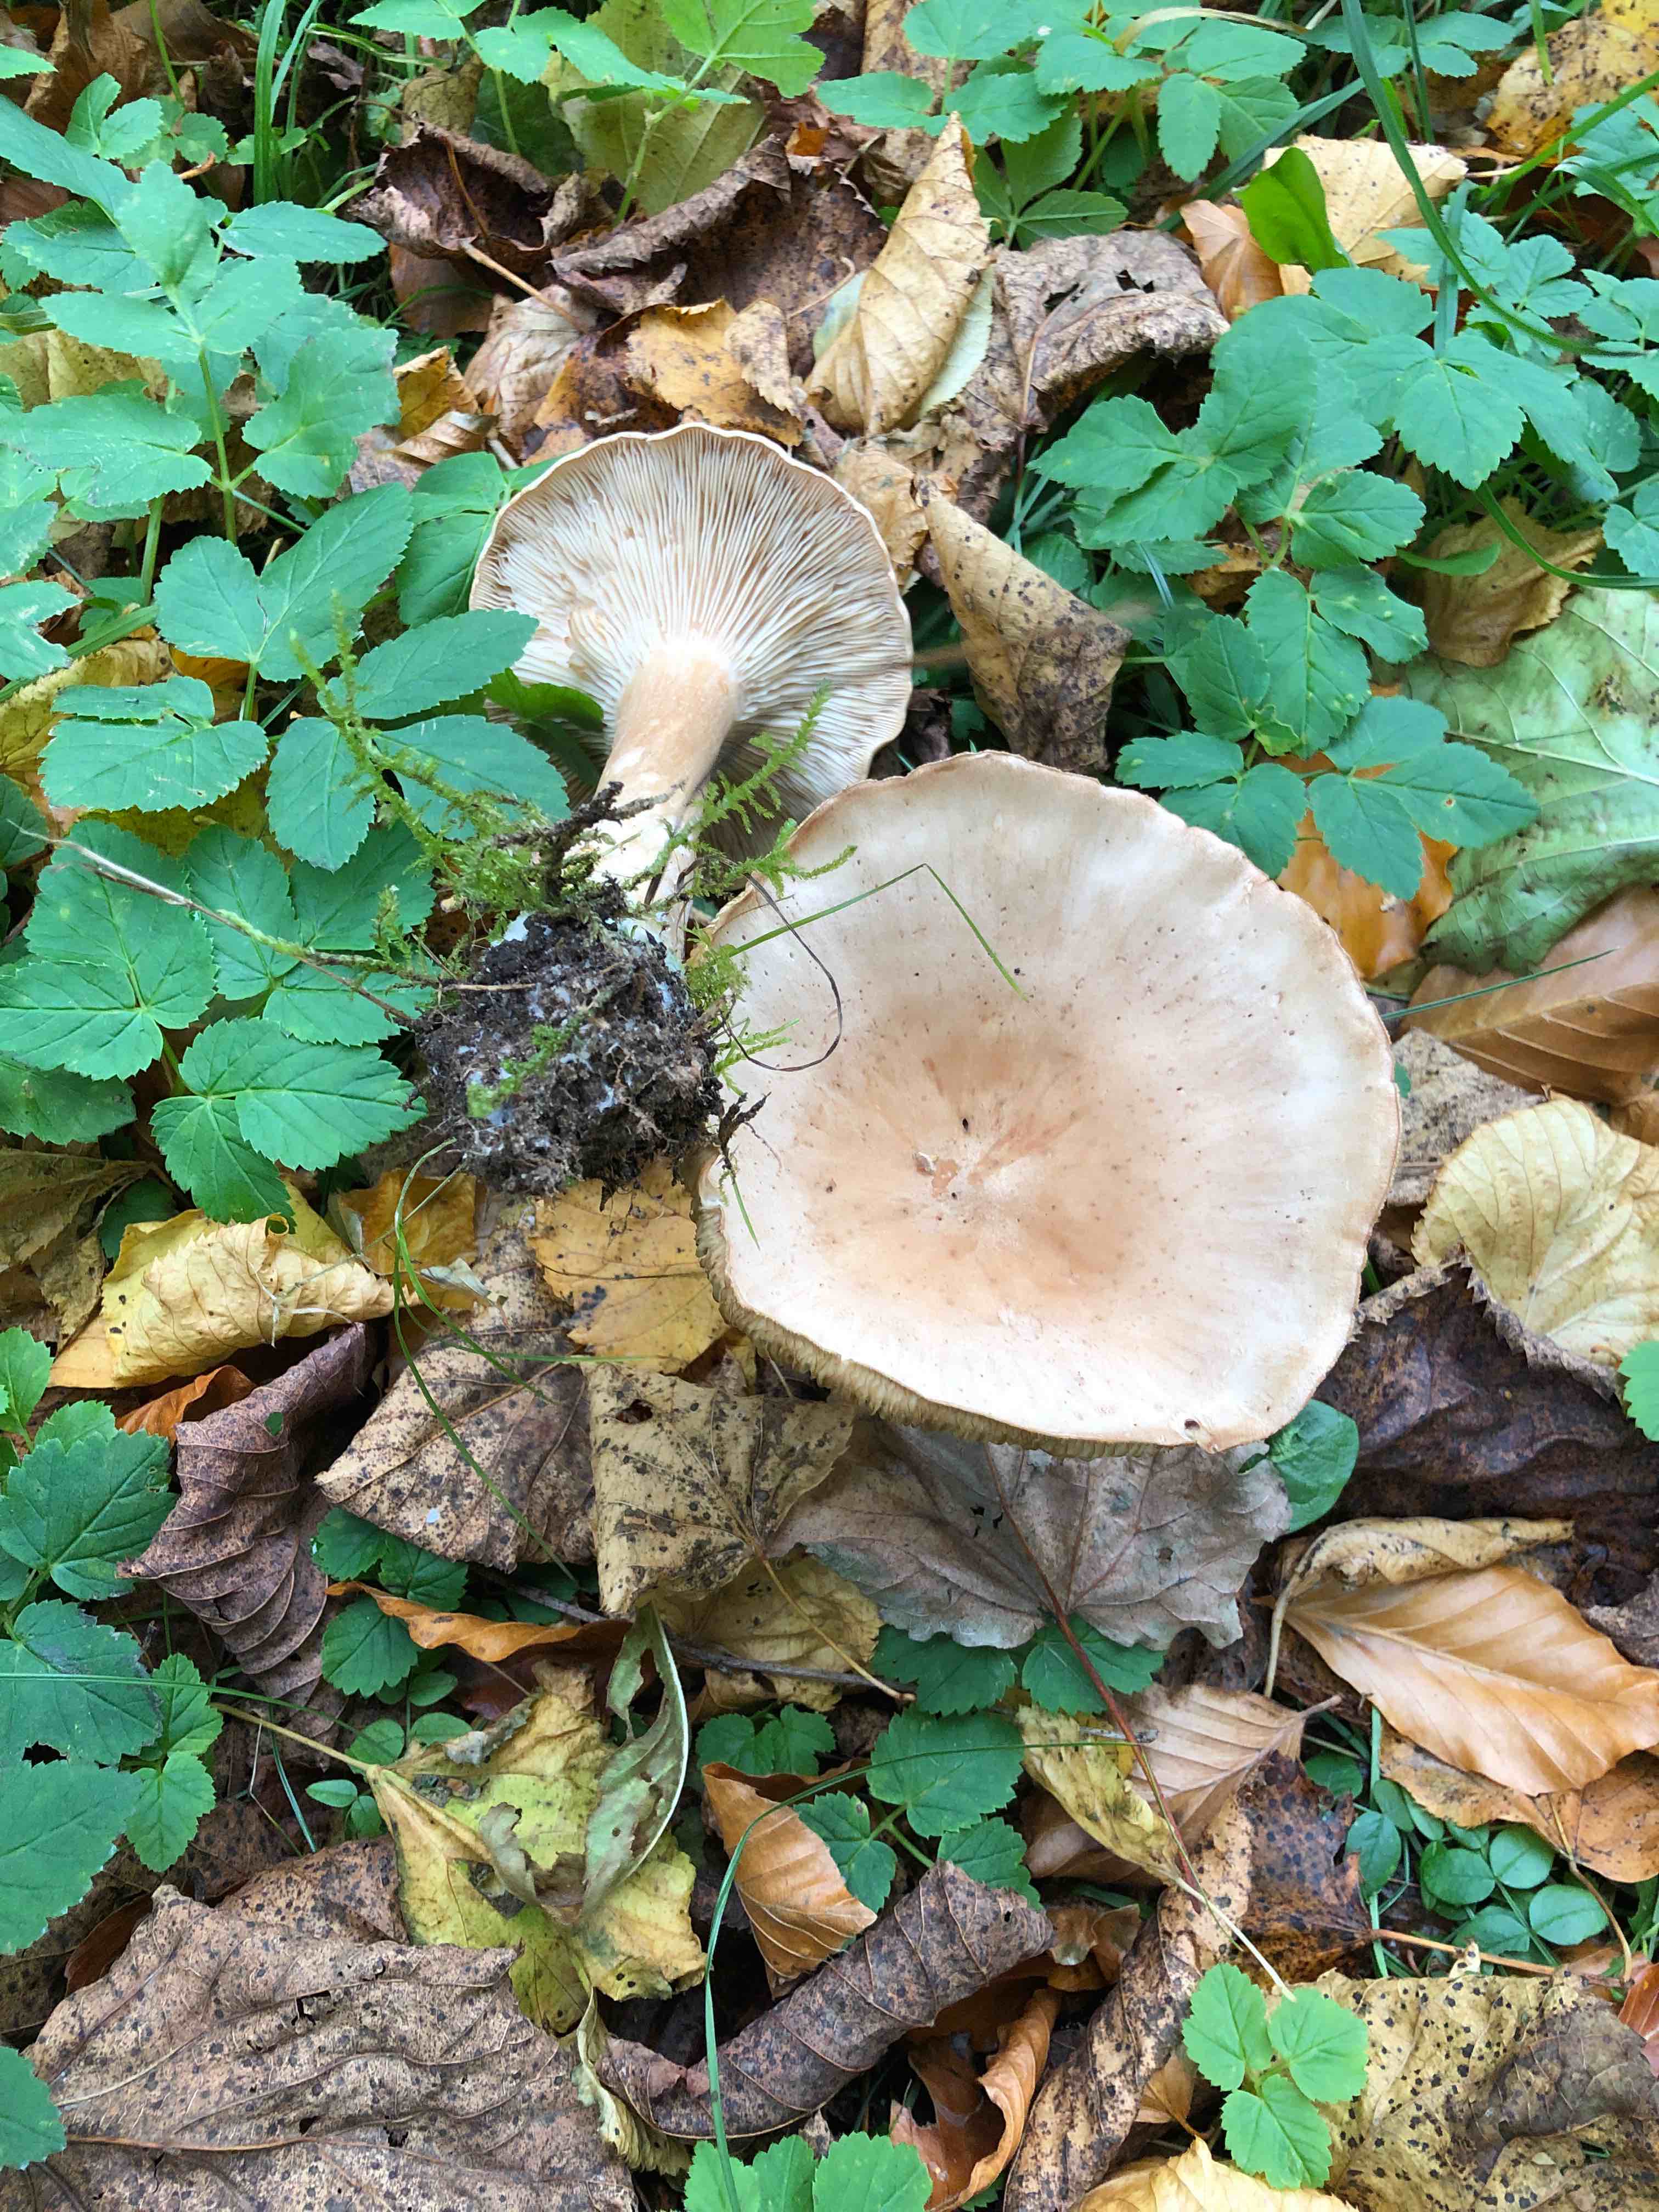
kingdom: Fungi
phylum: Basidiomycota
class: Agaricomycetes
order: Agaricales
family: Tricholomataceae
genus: Infundibulicybe
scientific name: Infundibulicybe geotropa
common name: stor tragthat
